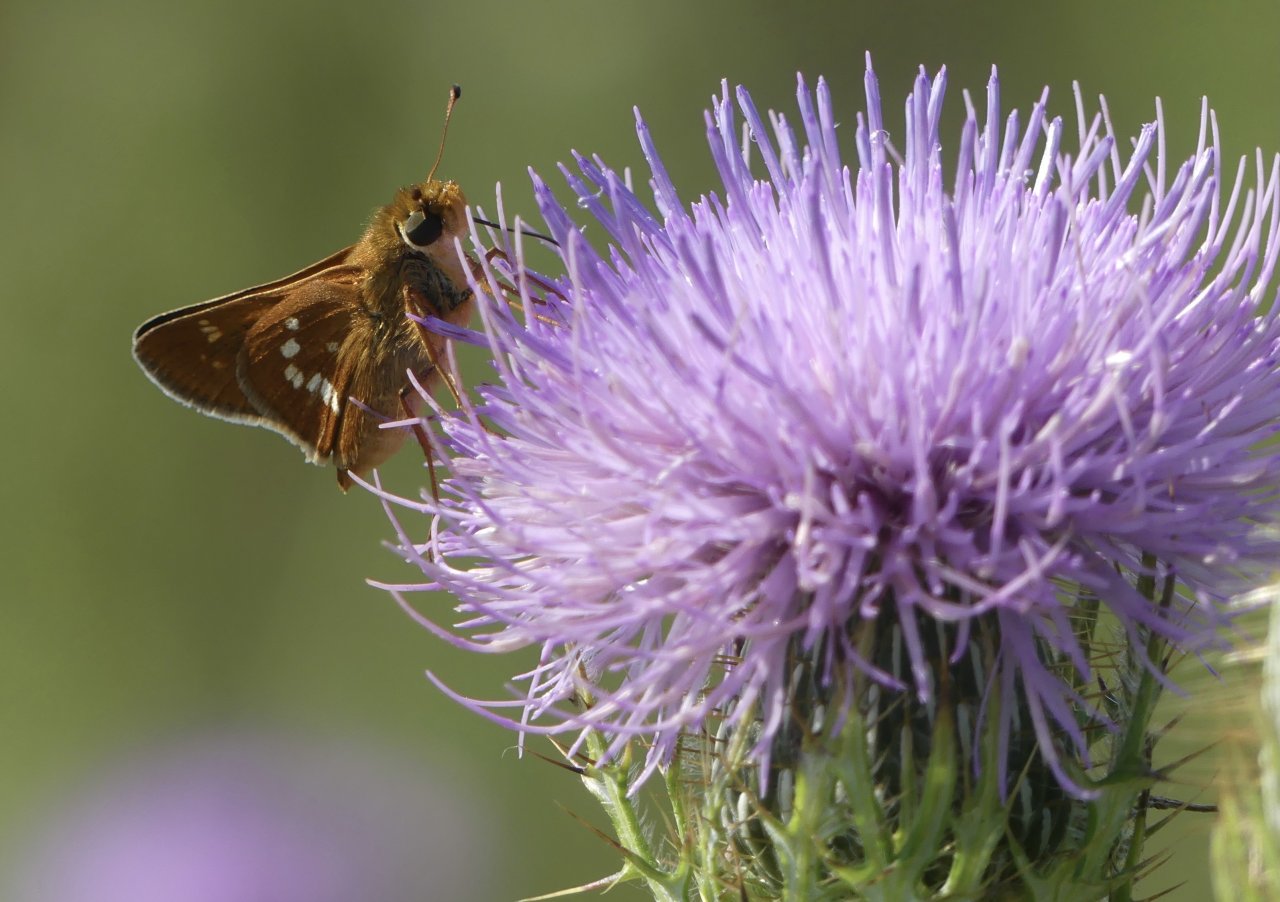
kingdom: Animalia
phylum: Arthropoda
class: Insecta
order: Lepidoptera
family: Hesperiidae
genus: Hesperia
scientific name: Hesperia leonardus
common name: Leonard's Skipper
